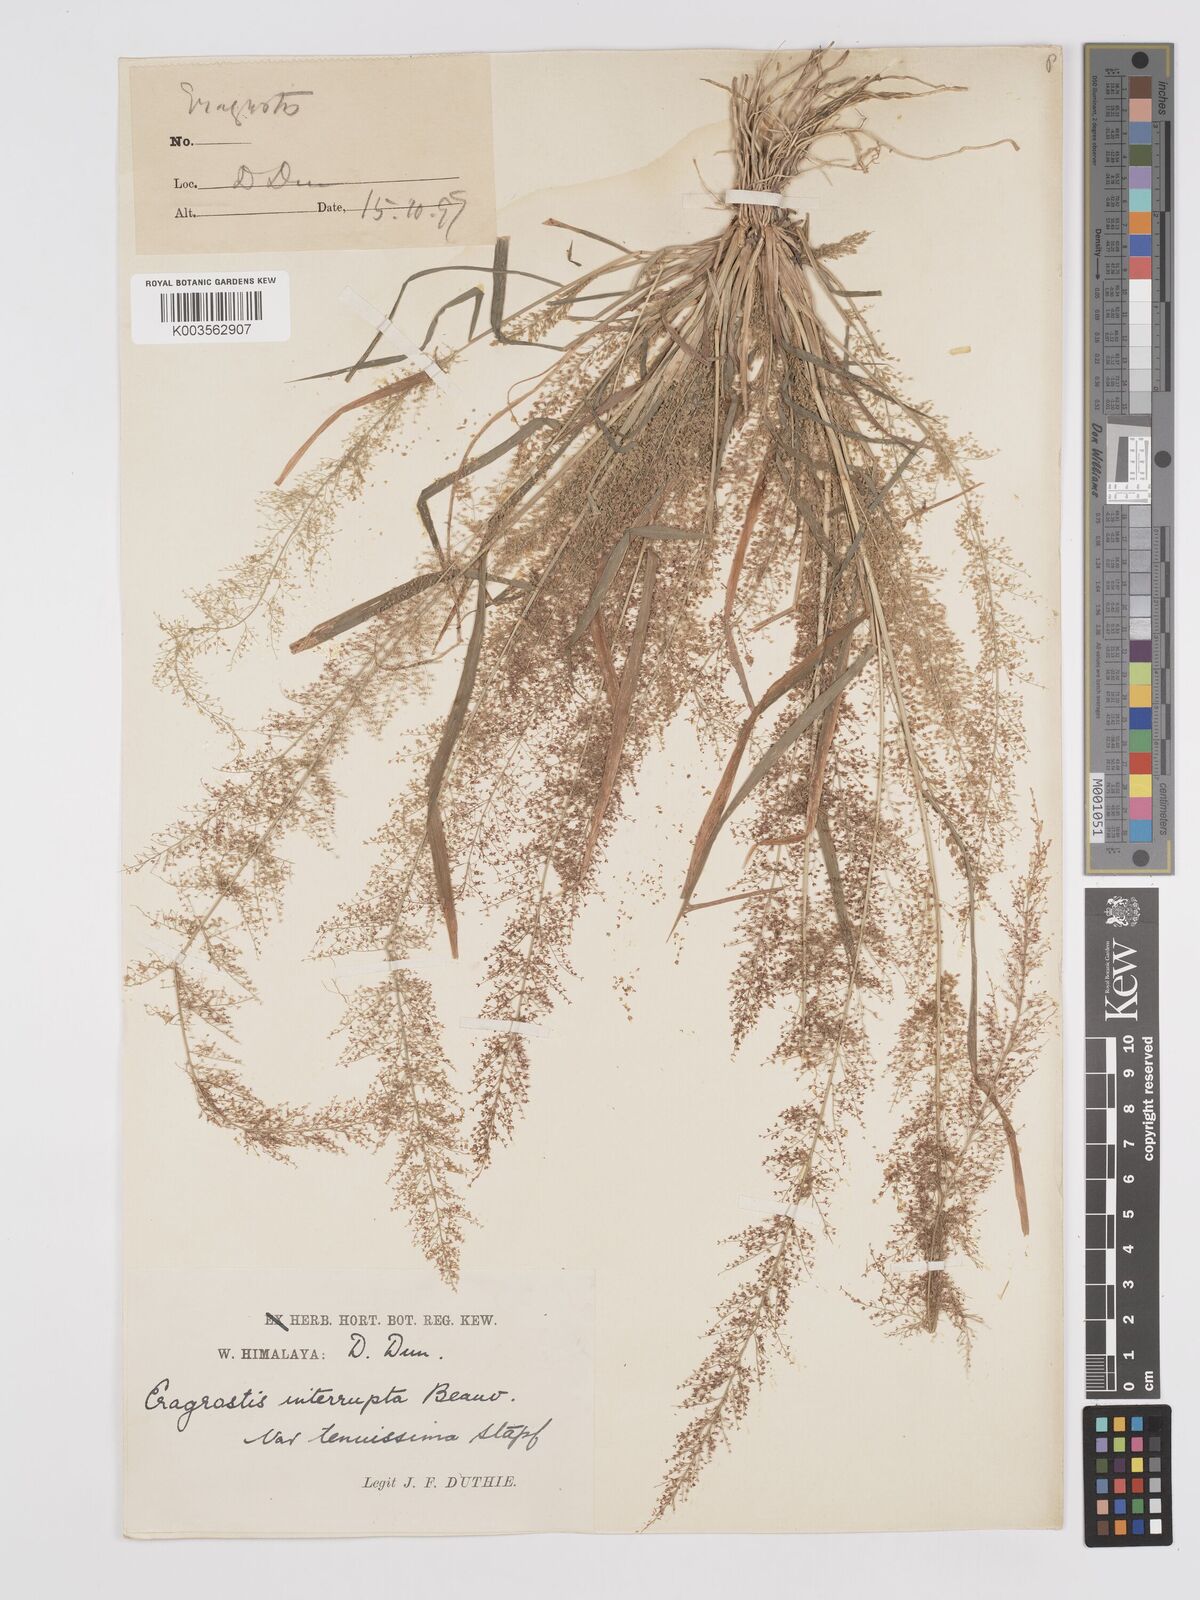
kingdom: Plantae
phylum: Tracheophyta
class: Liliopsida
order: Poales
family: Poaceae
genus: Eragrostis
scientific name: Eragrostis japonica
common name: Pond lovegrass
